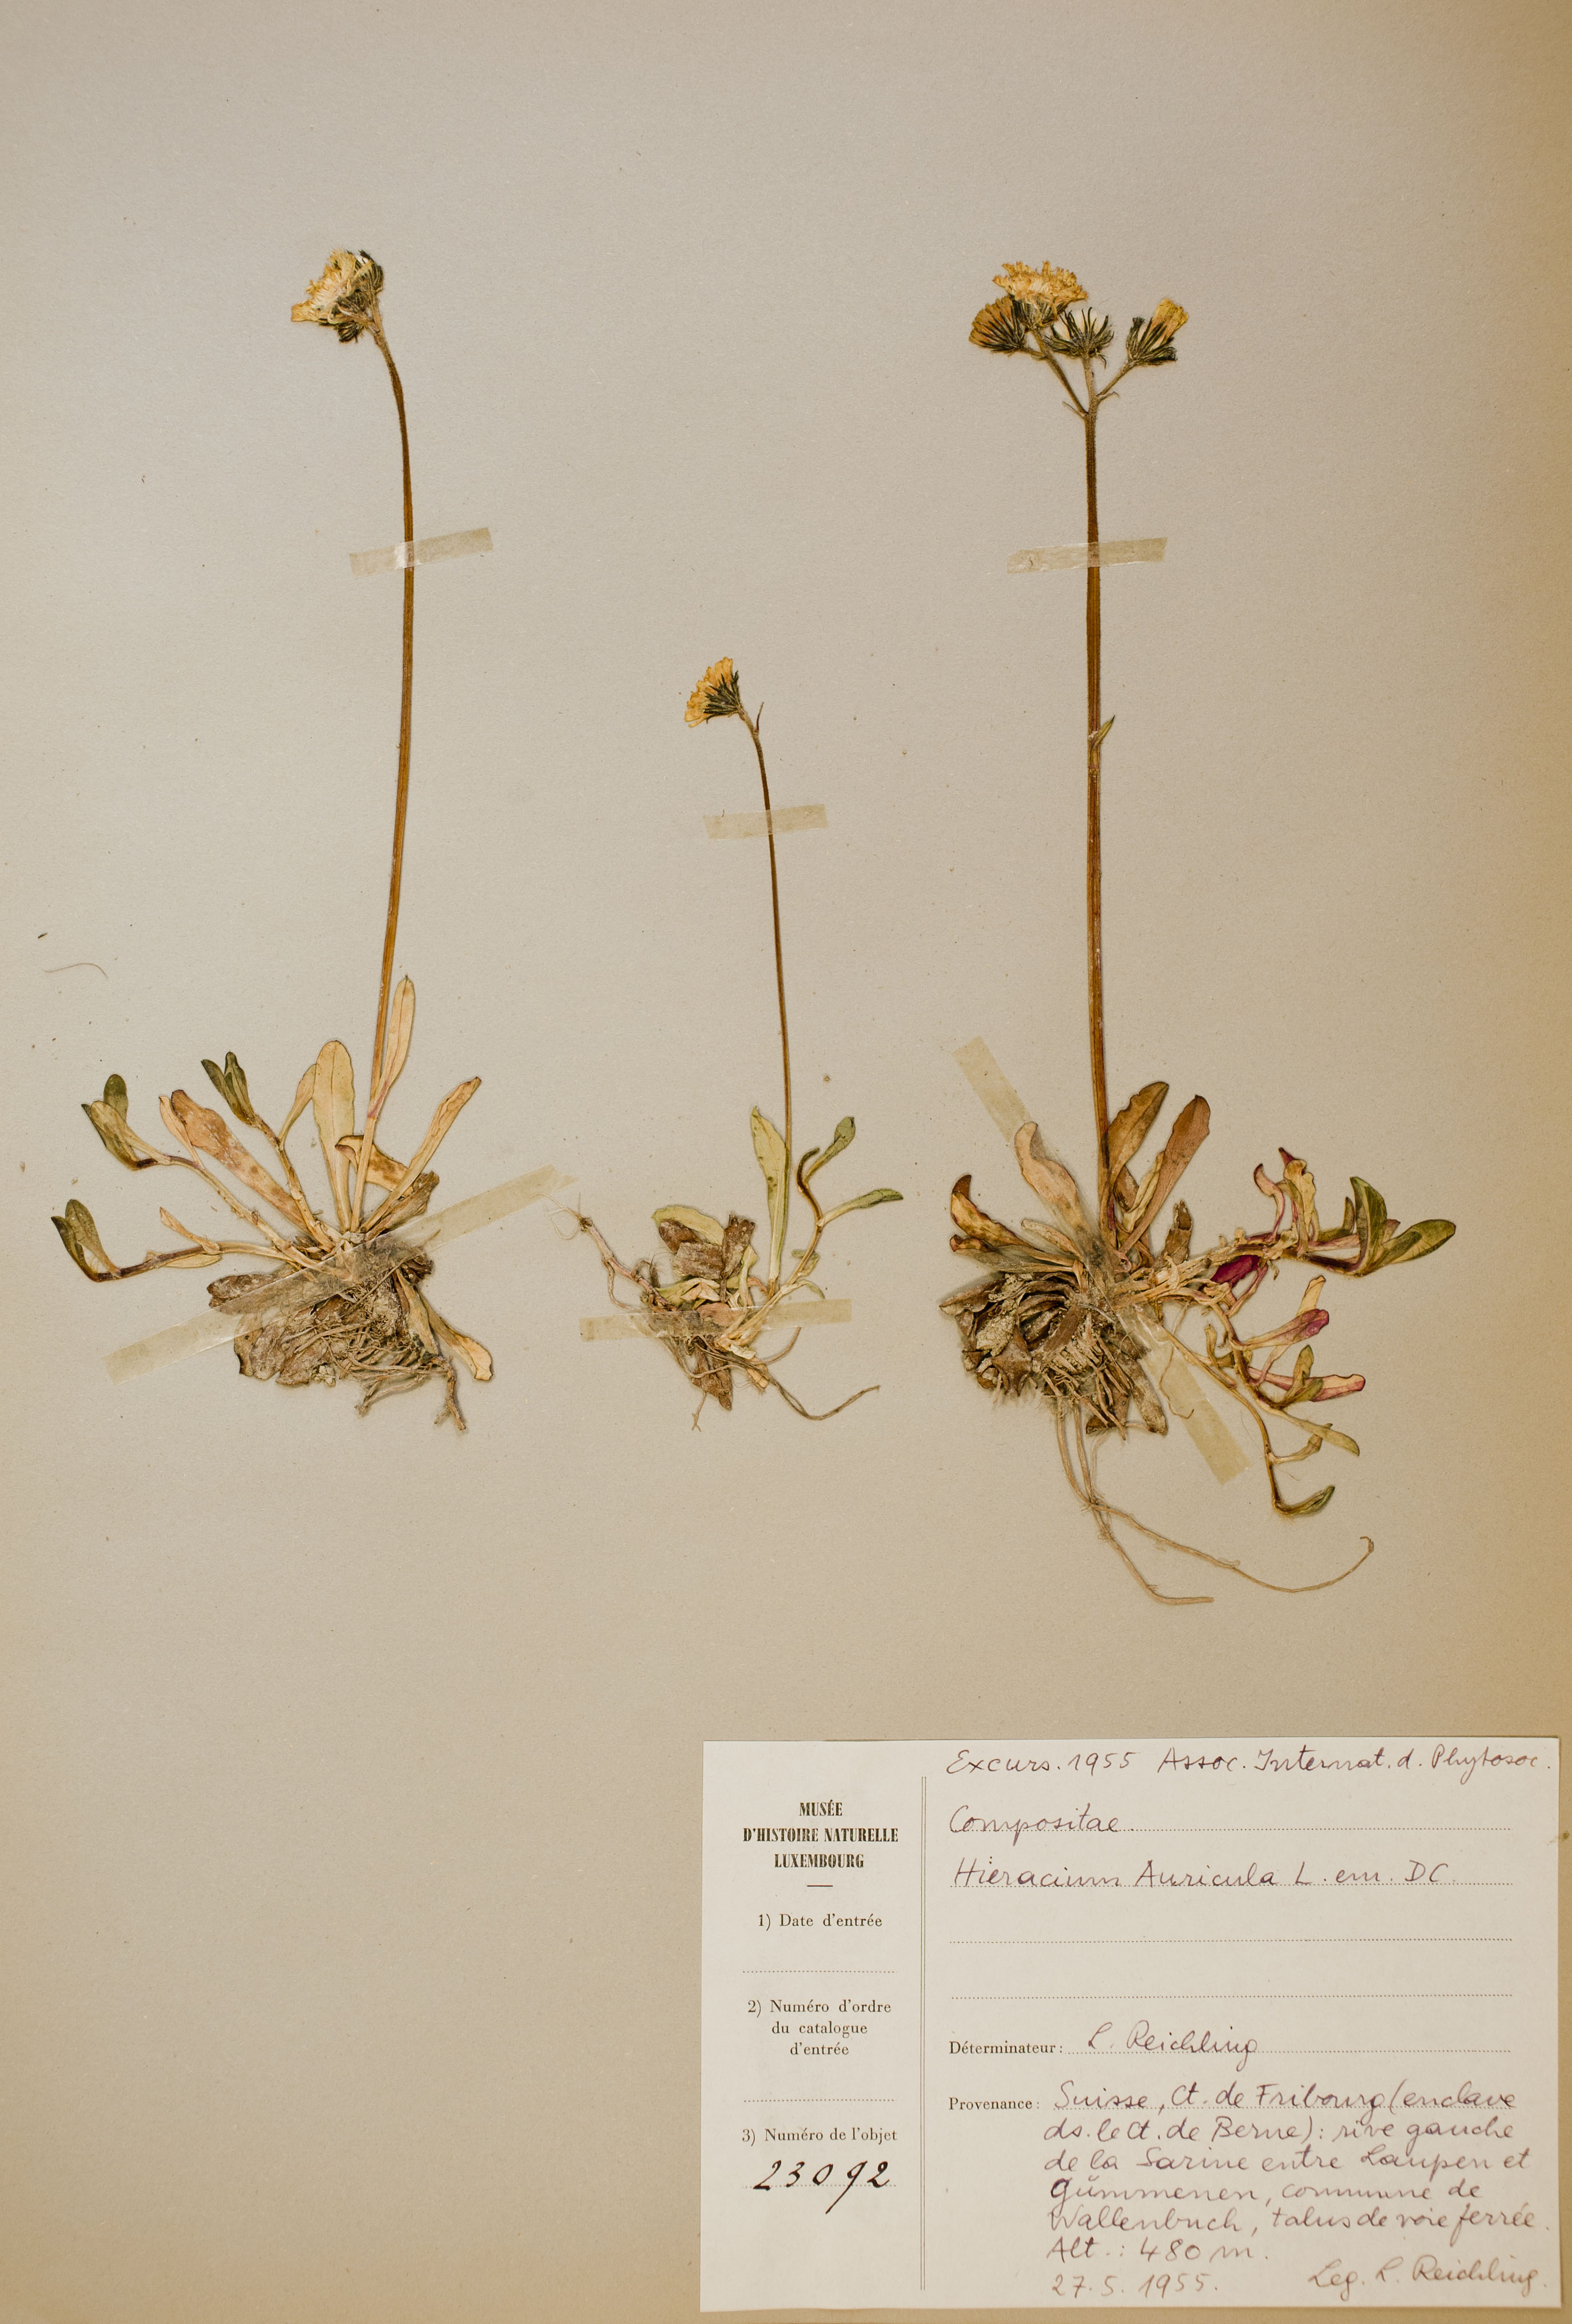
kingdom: Plantae
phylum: Tracheophyta
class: Magnoliopsida
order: Asterales
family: Asteraceae
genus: Pilosella
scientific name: Pilosella floribunda
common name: Glaucous hawkweed
